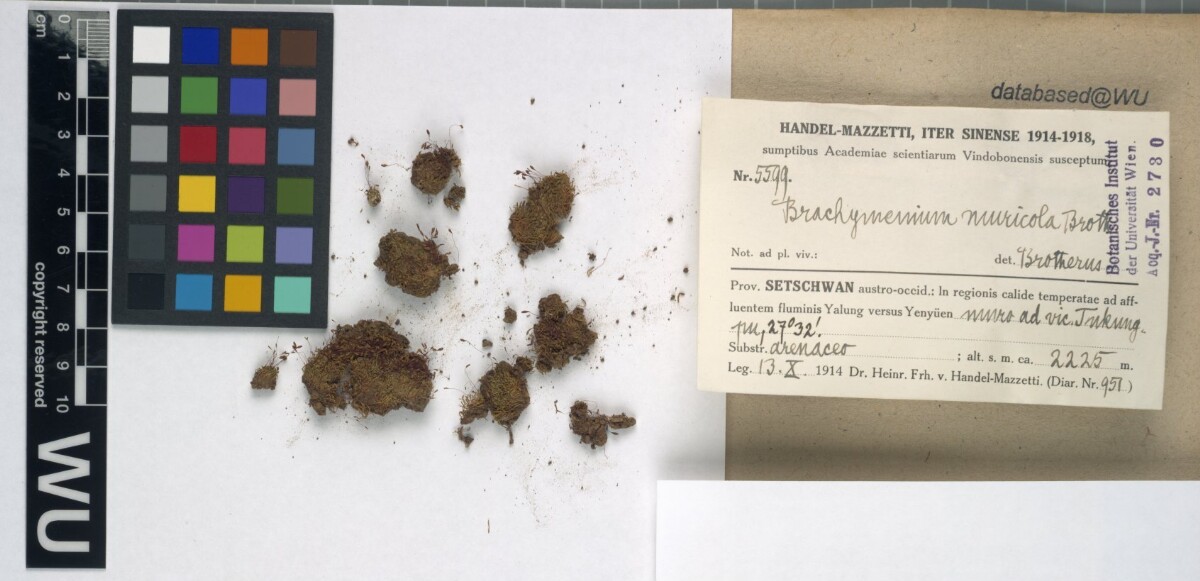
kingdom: Plantae
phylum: Bryophyta
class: Bryopsida
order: Bryales
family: Bryaceae
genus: Brachymenium
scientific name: Brachymenium muricola
